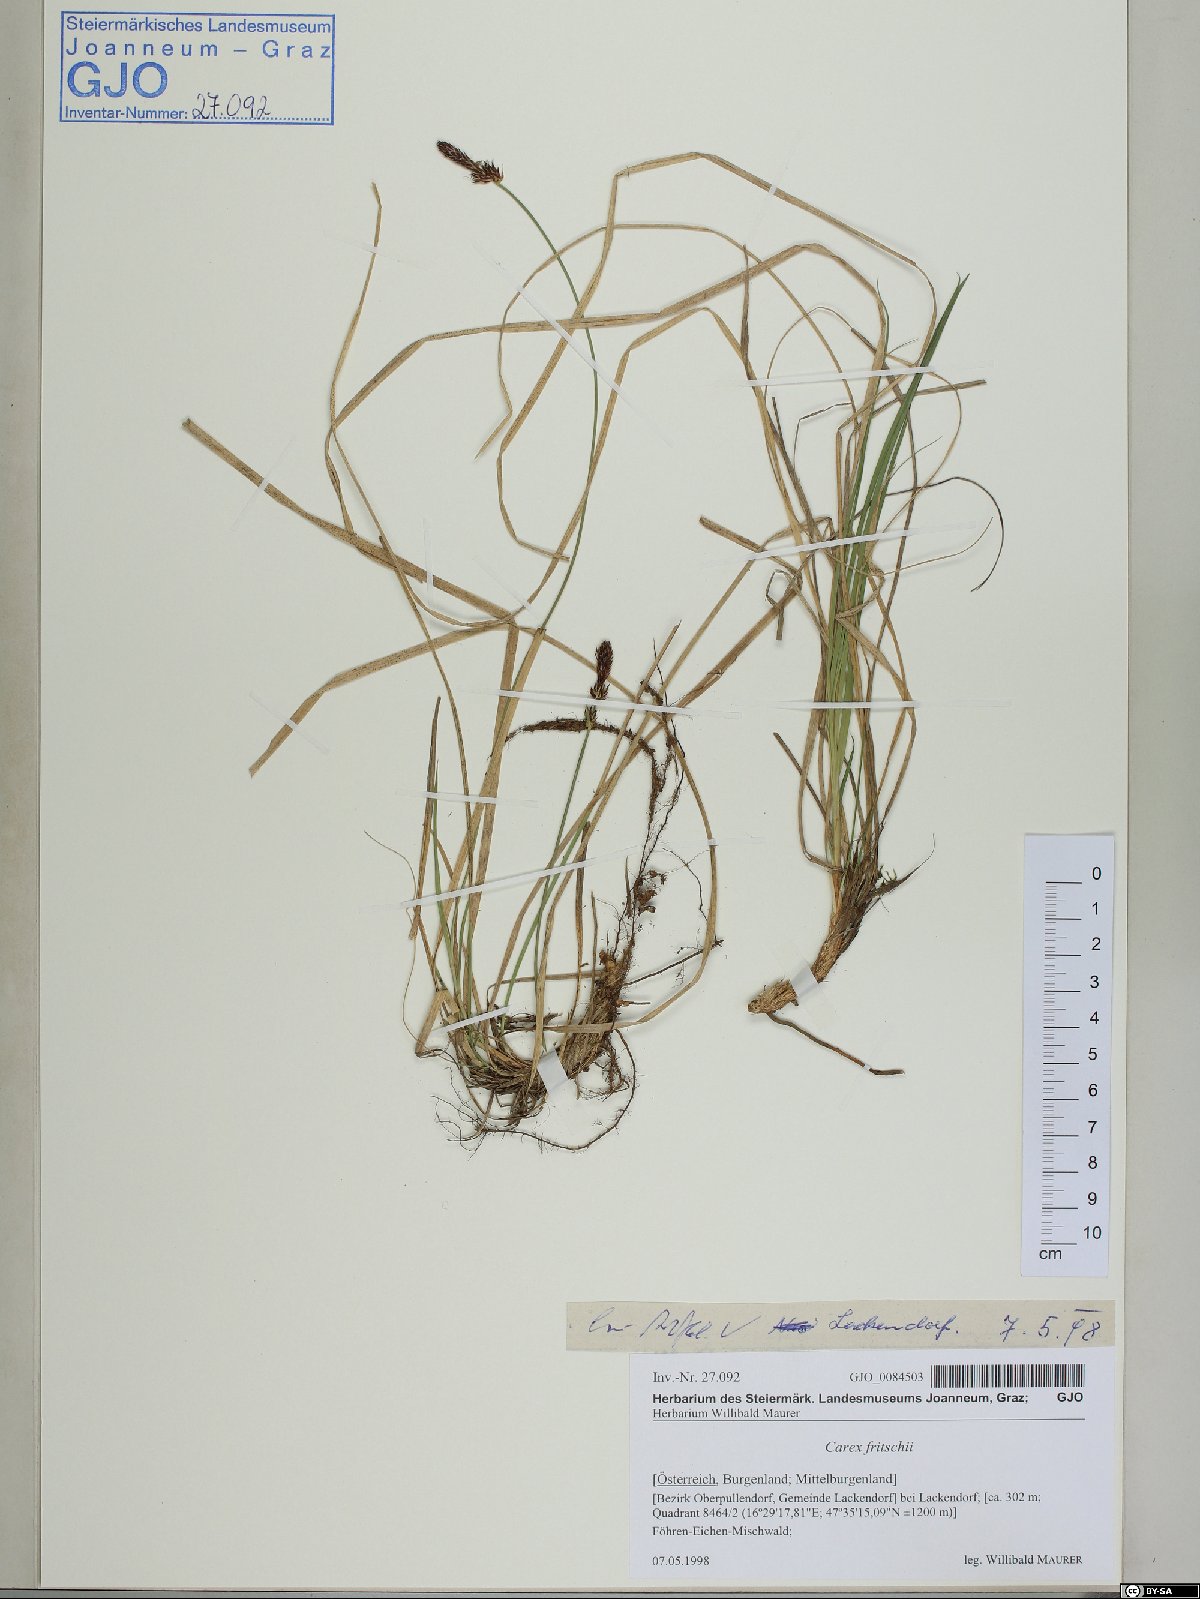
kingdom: Plantae
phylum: Tracheophyta
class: Liliopsida
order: Poales
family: Cyperaceae
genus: Carex
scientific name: Carex fritschii
